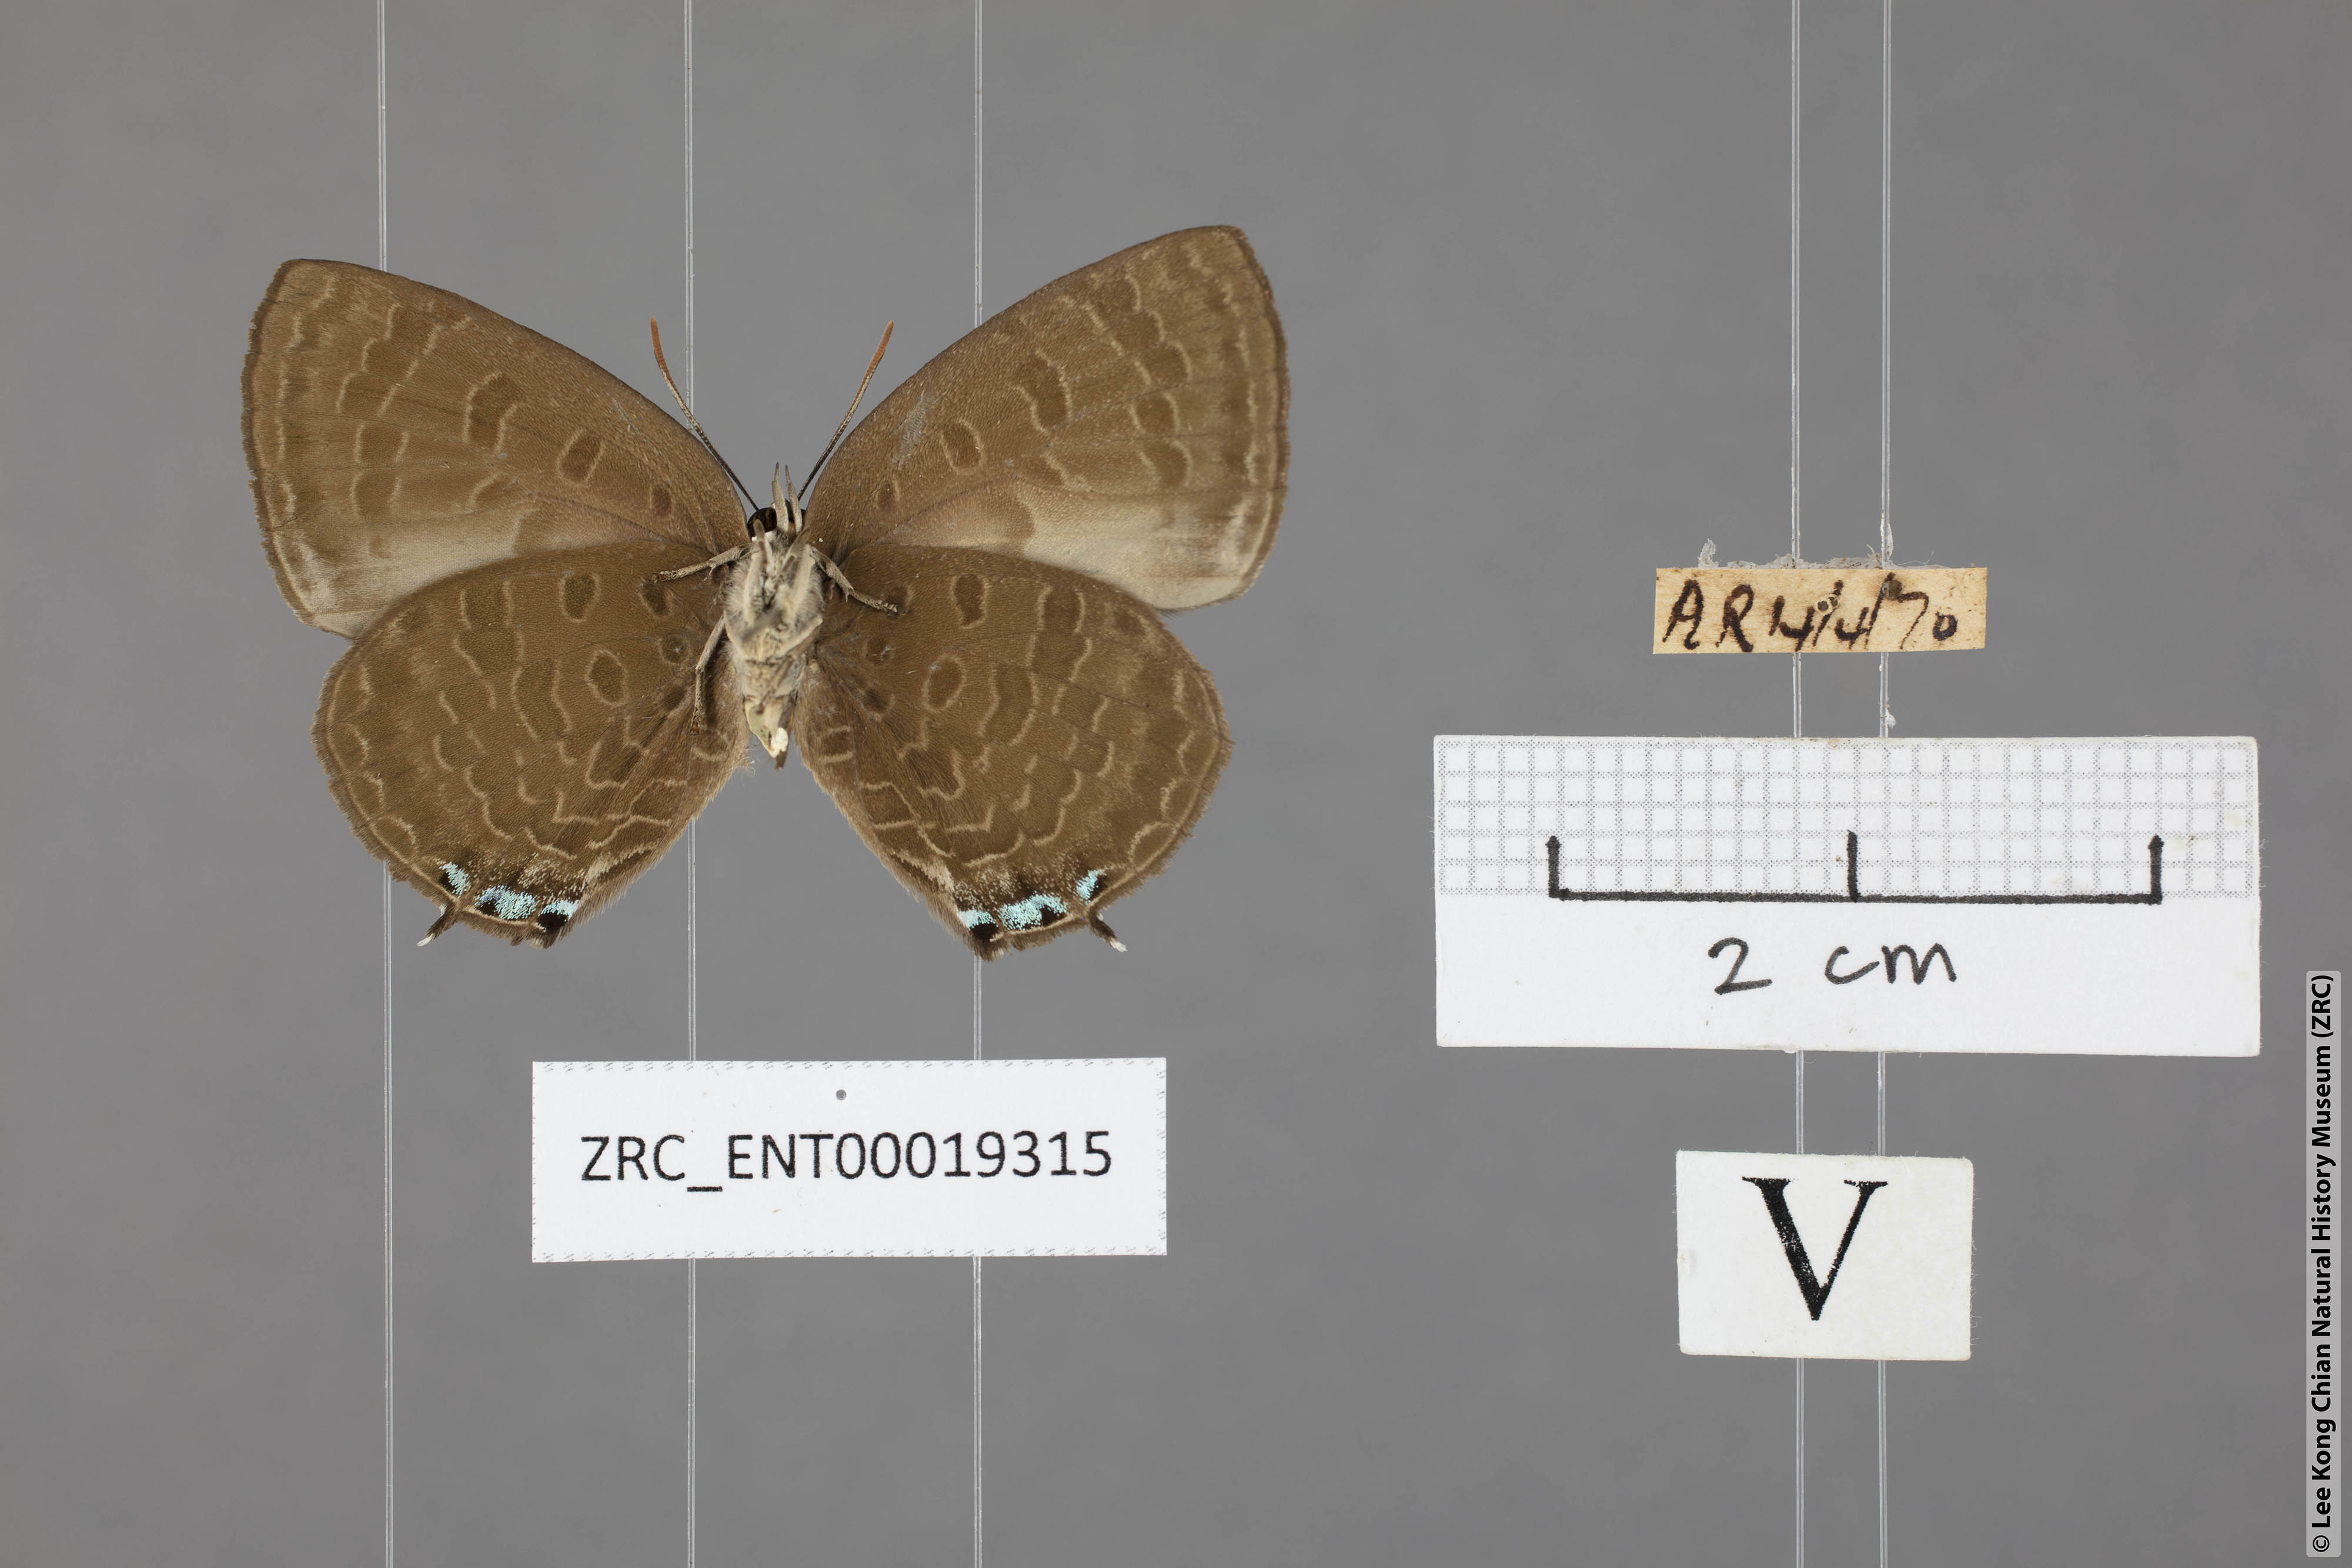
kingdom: Animalia
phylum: Arthropoda
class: Insecta
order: Lepidoptera
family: Lycaenidae
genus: Arhopala
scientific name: Arhopala buddha
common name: Buddha oakblue
